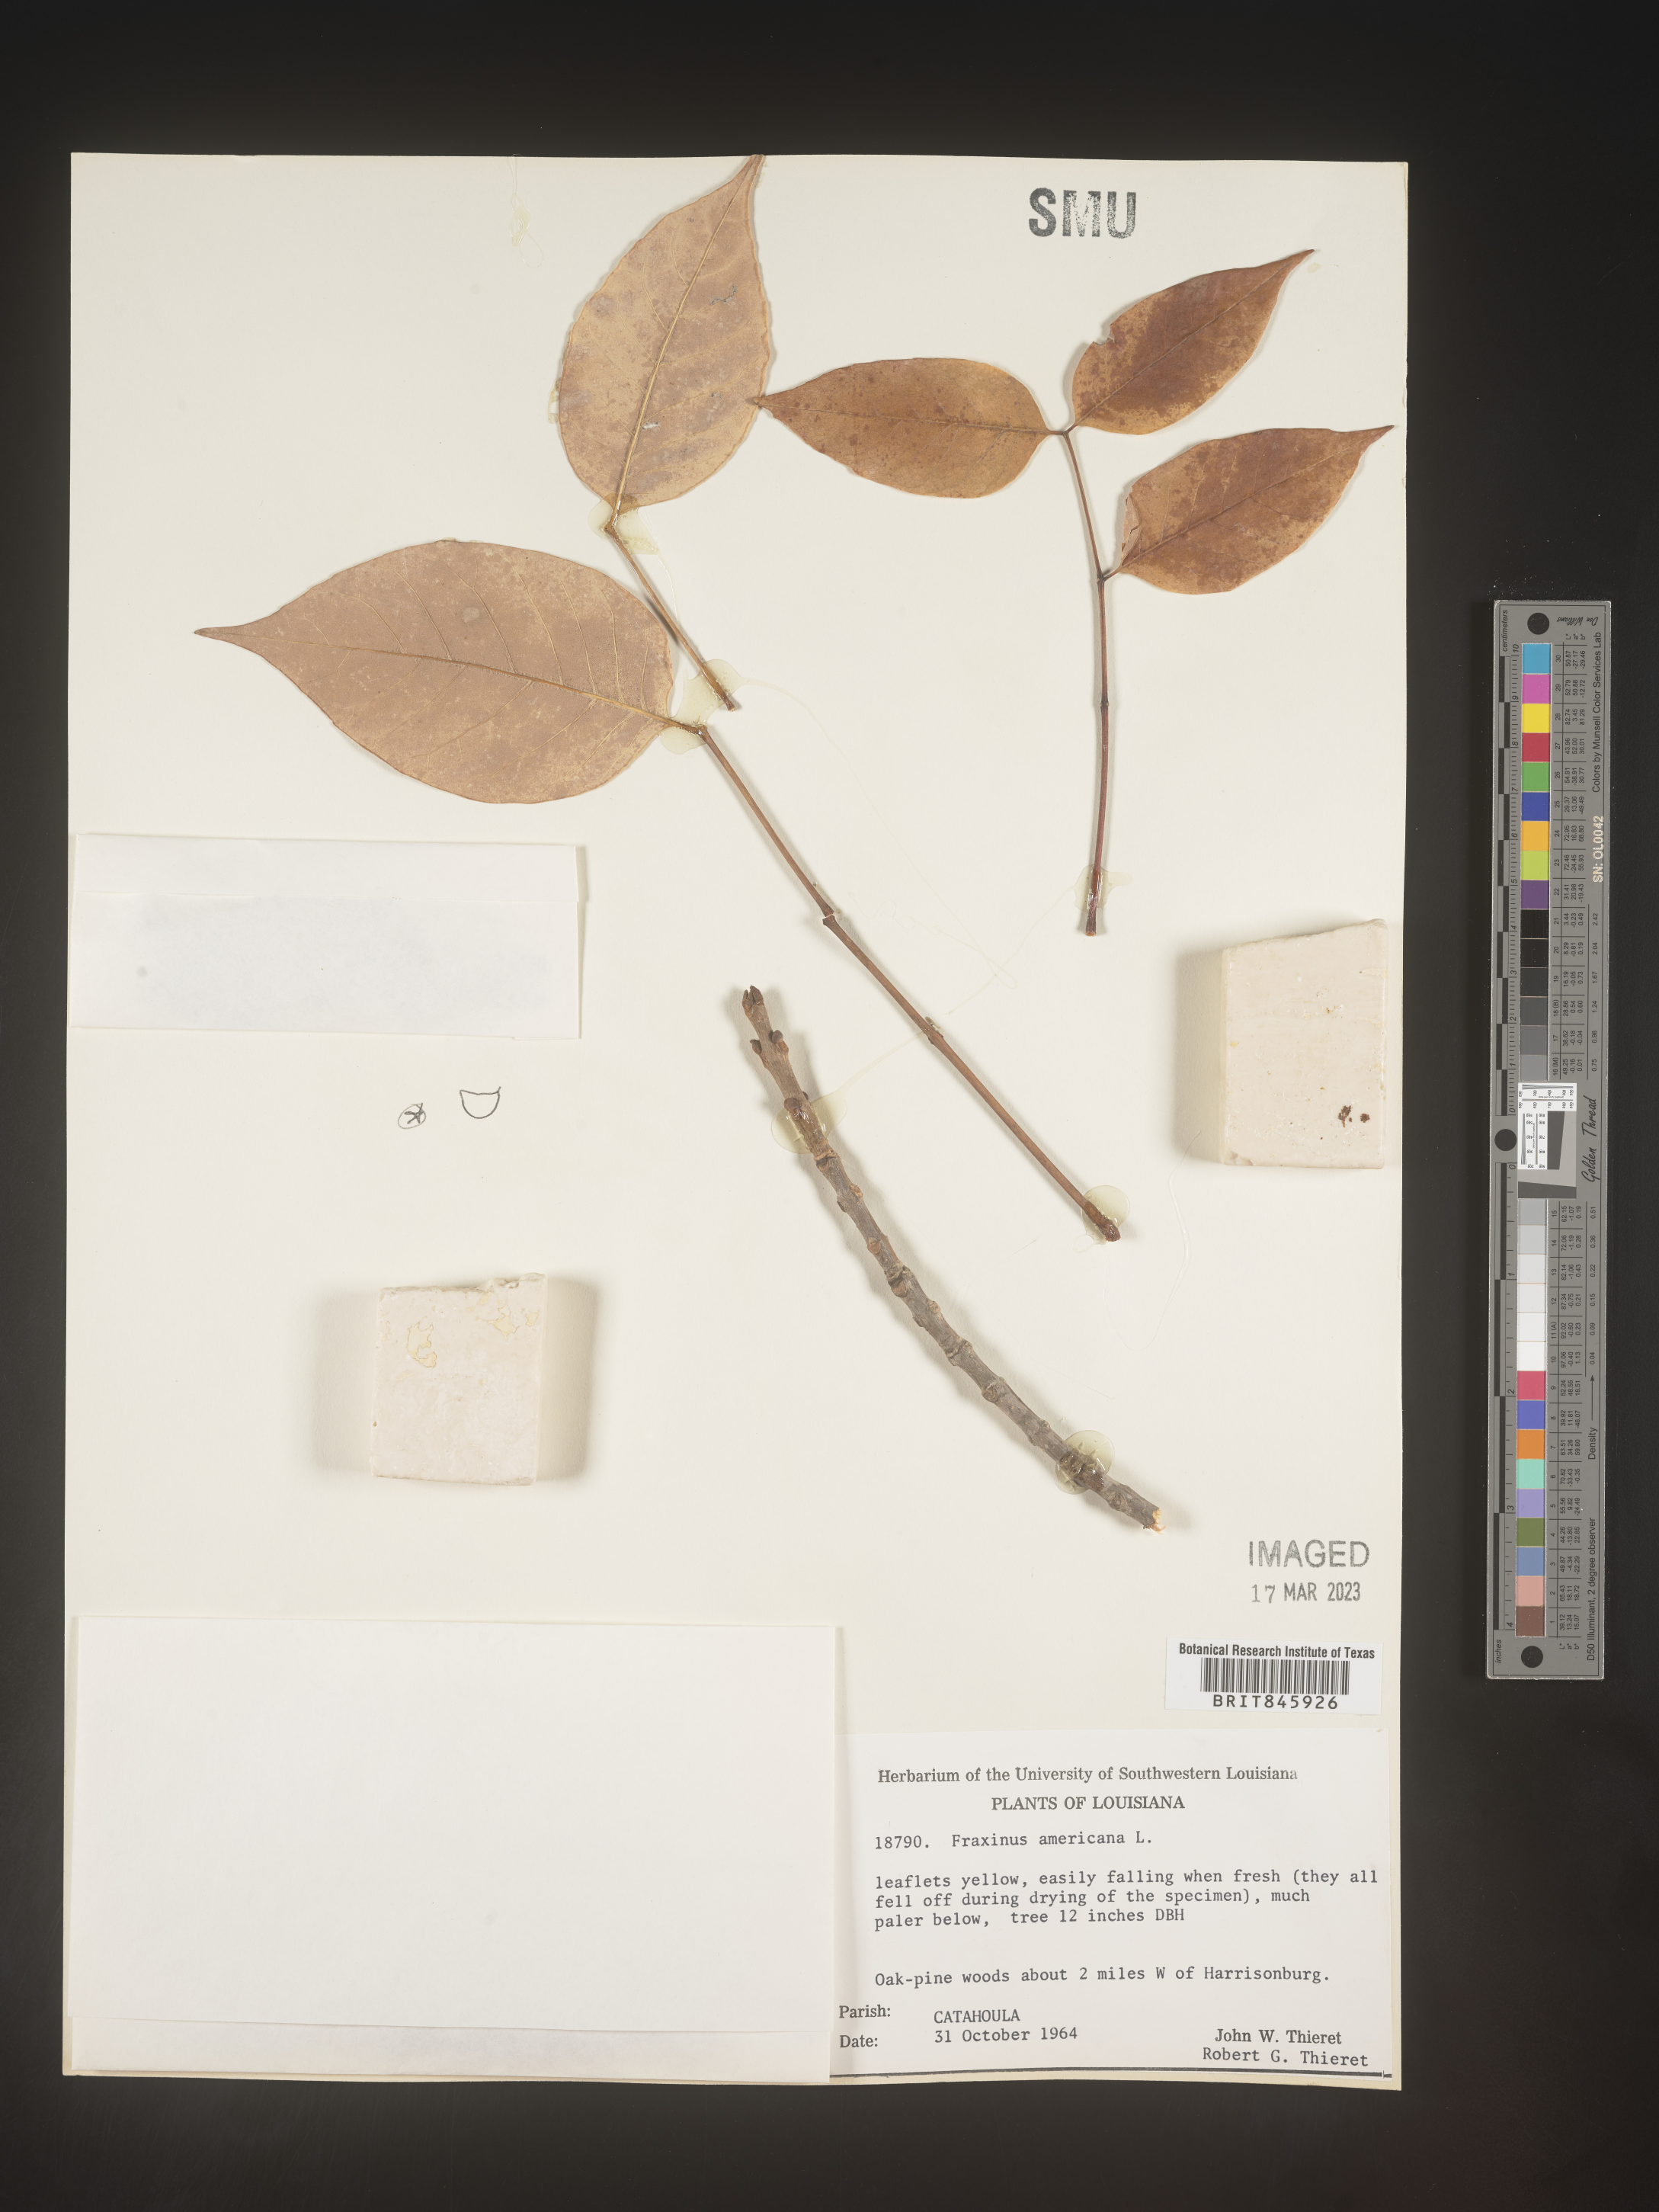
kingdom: Plantae
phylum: Tracheophyta
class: Magnoliopsida
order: Lamiales
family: Oleaceae
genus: Fraxinus
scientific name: Fraxinus americana
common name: White ash
